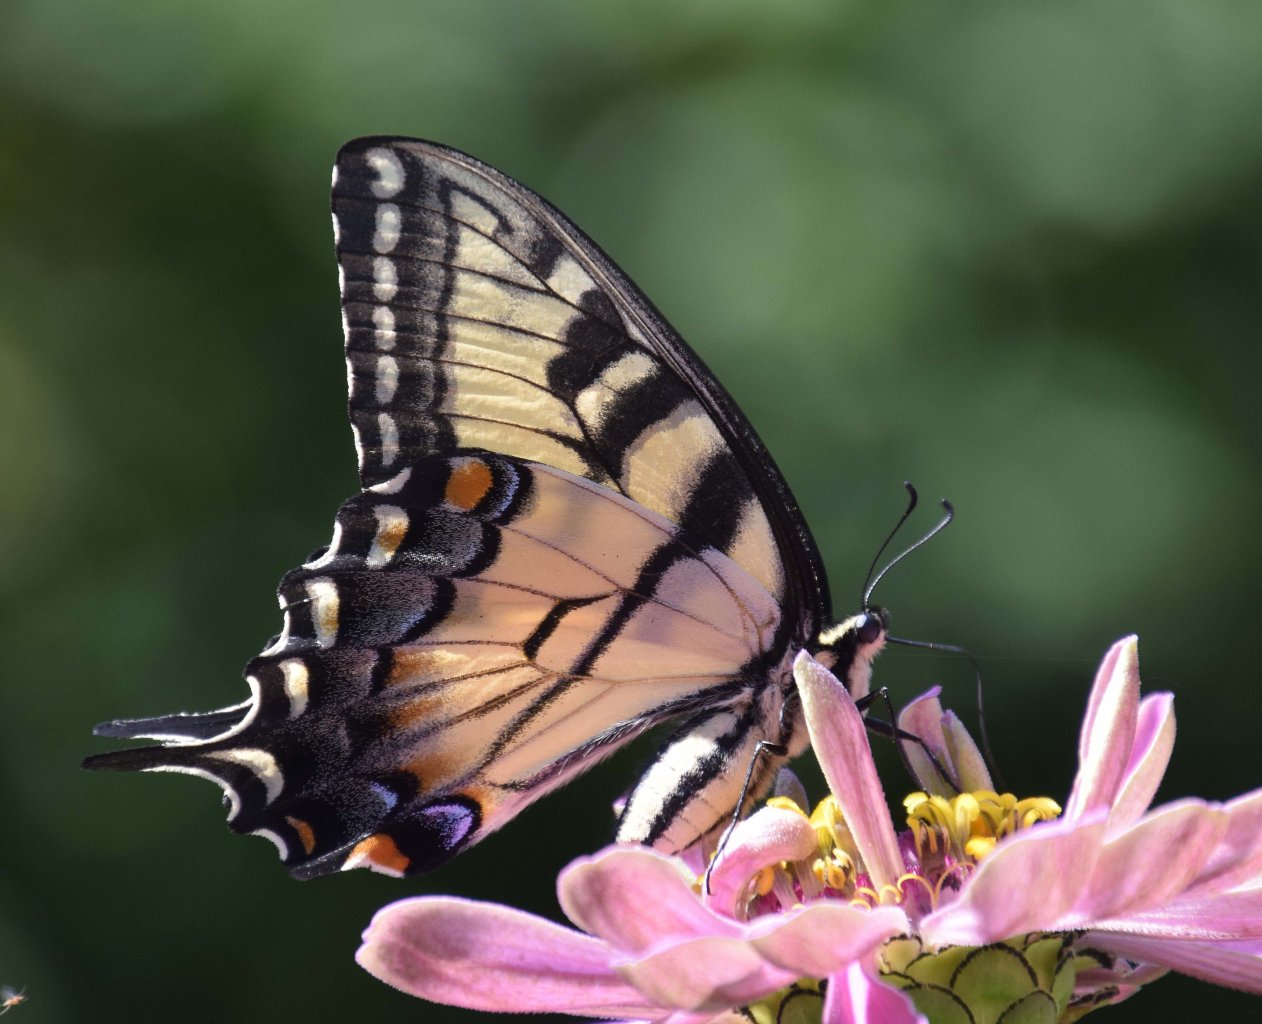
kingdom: Animalia
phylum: Arthropoda
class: Insecta
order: Lepidoptera
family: Papilionidae
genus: Papilio
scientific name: Papilio
